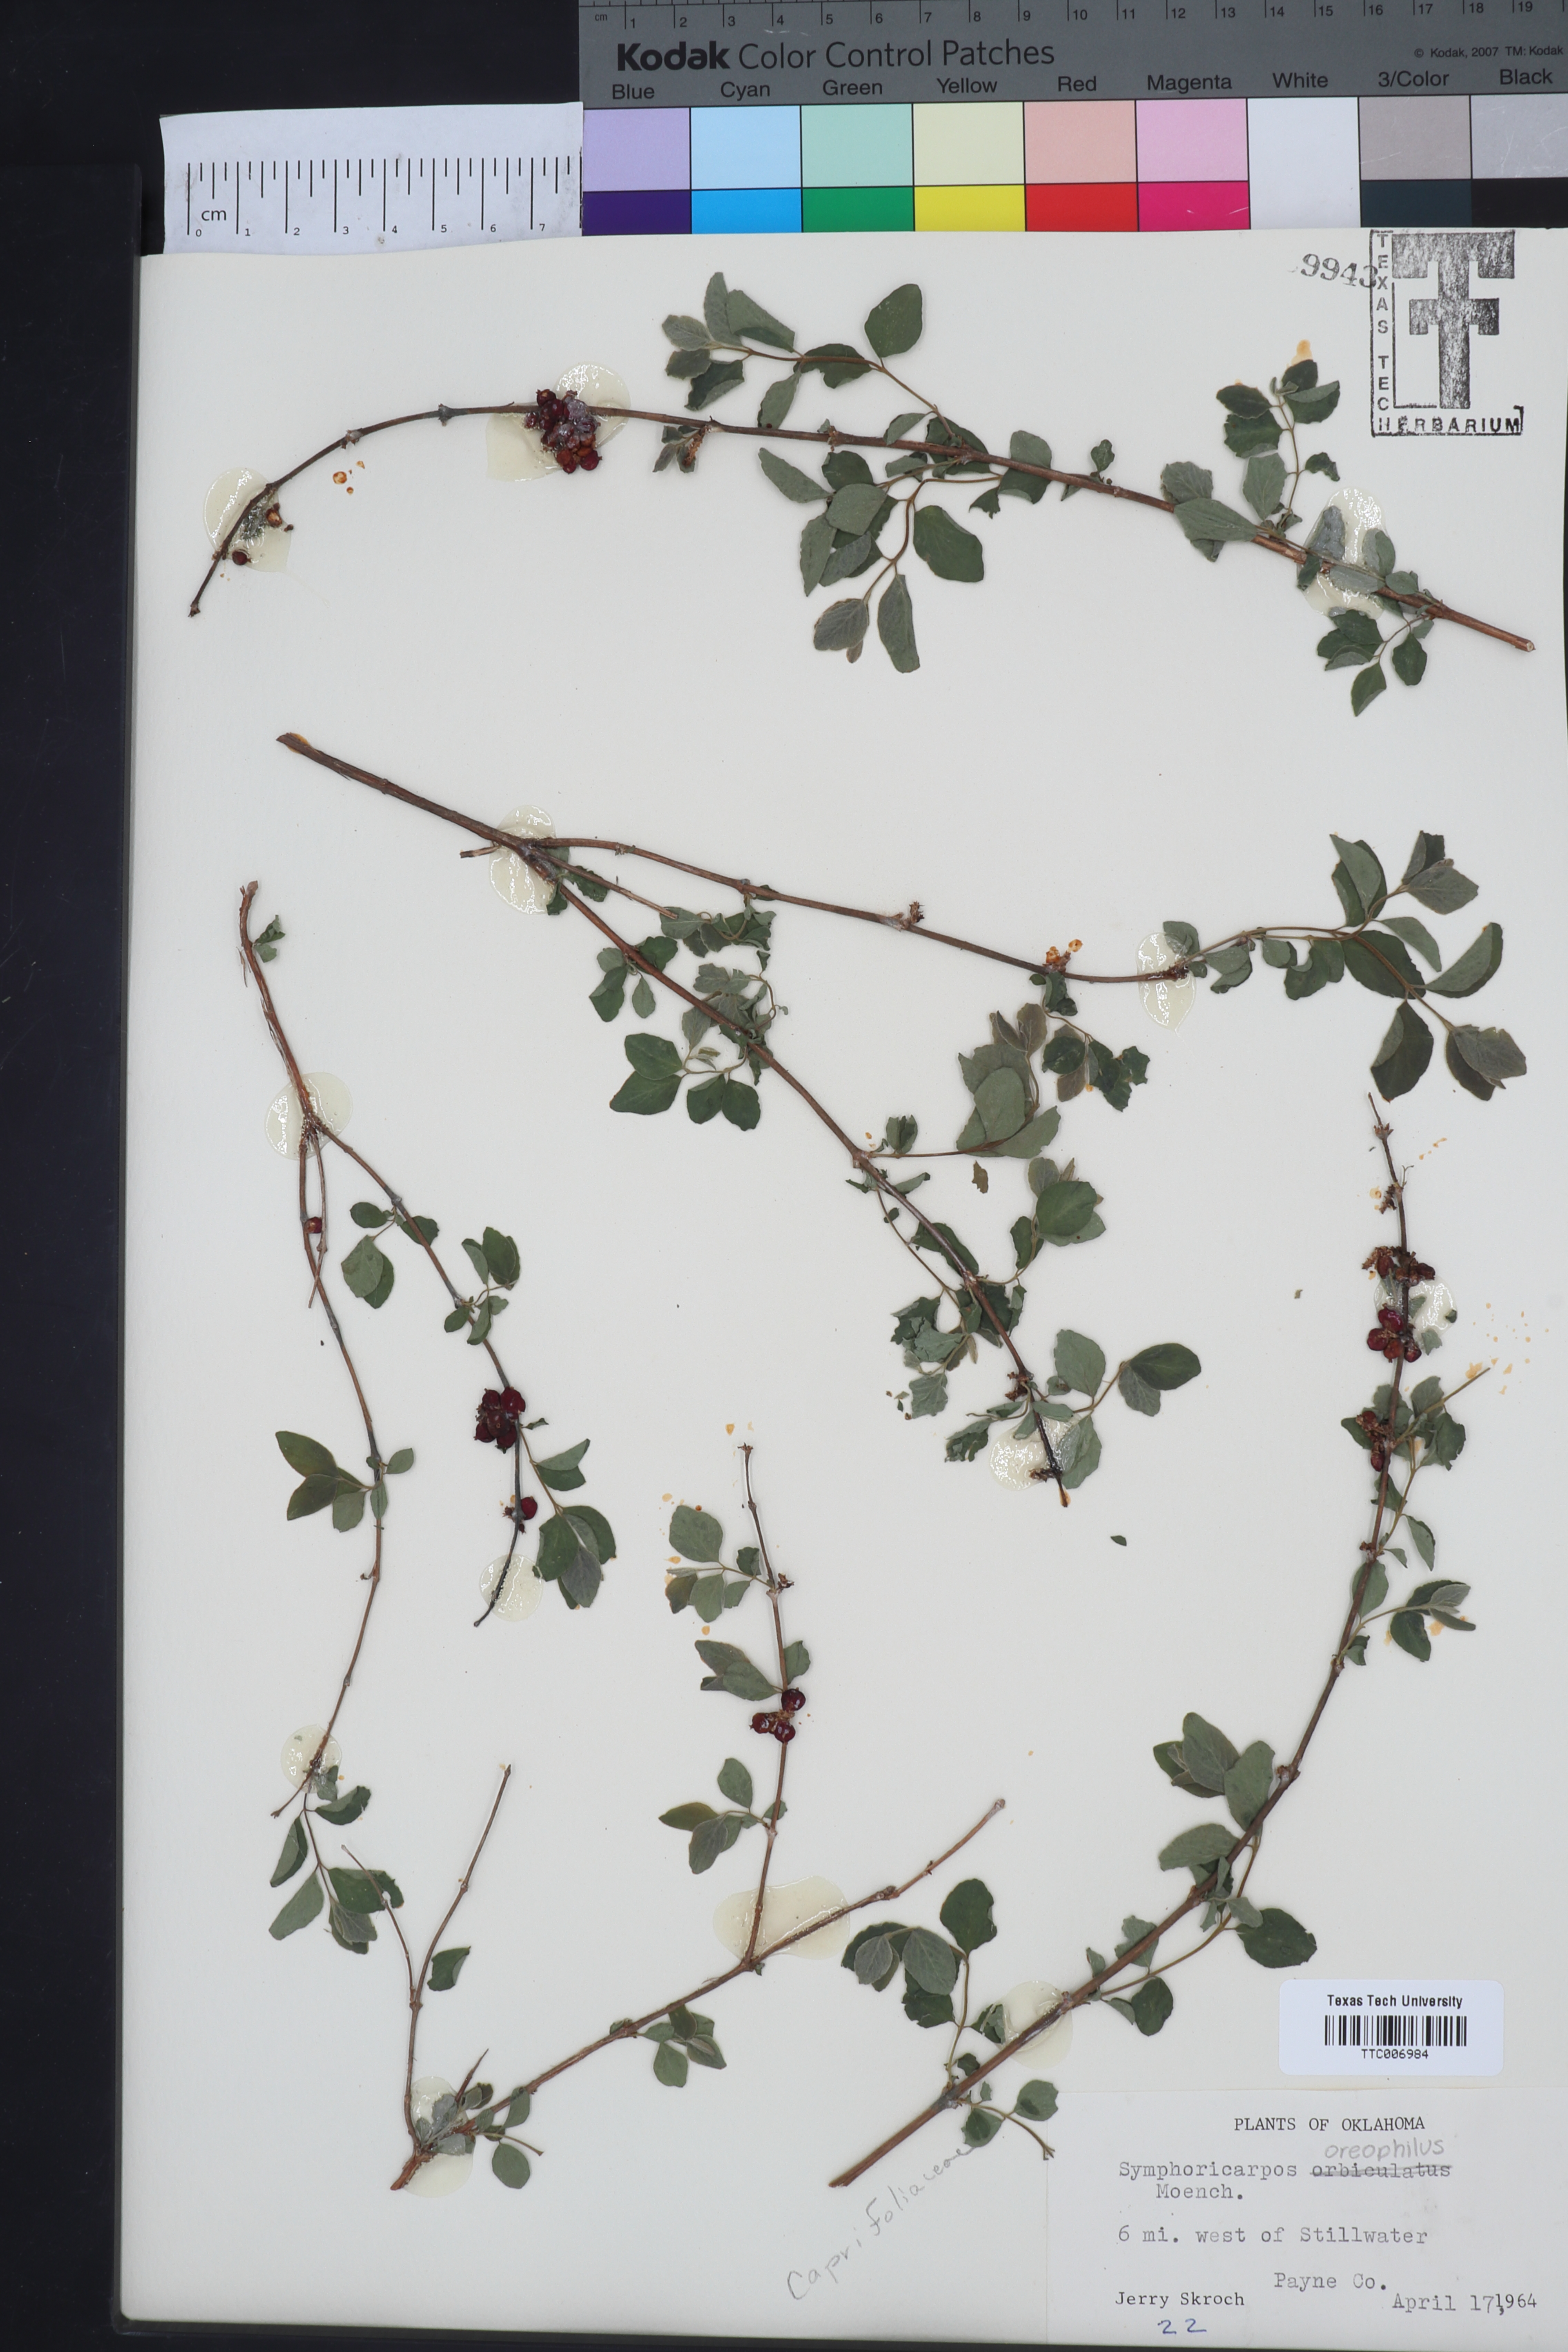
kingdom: Plantae
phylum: Tracheophyta
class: Magnoliopsida
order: Dipsacales
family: Caprifoliaceae
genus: Symphoricarpos
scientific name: Symphoricarpos orbiculatus
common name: Coralberry
